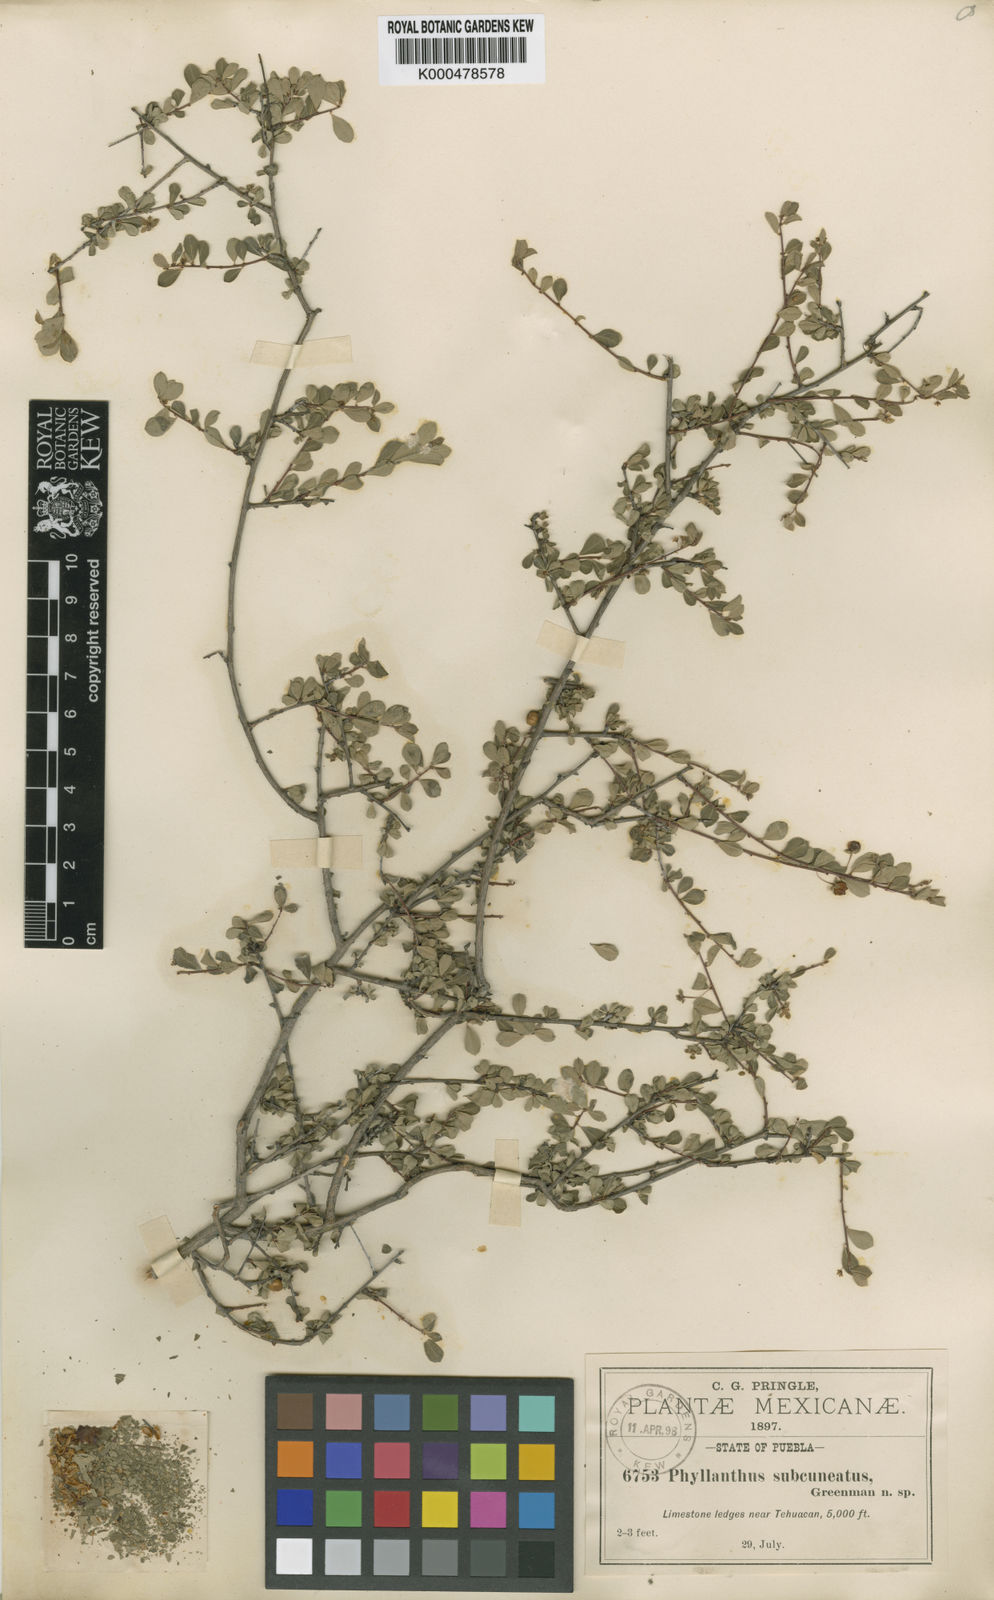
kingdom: Plantae
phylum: Tracheophyta
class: Magnoliopsida
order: Malpighiales
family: Phyllanthaceae
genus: Phyllanthus
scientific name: Phyllanthus subcuneatus
